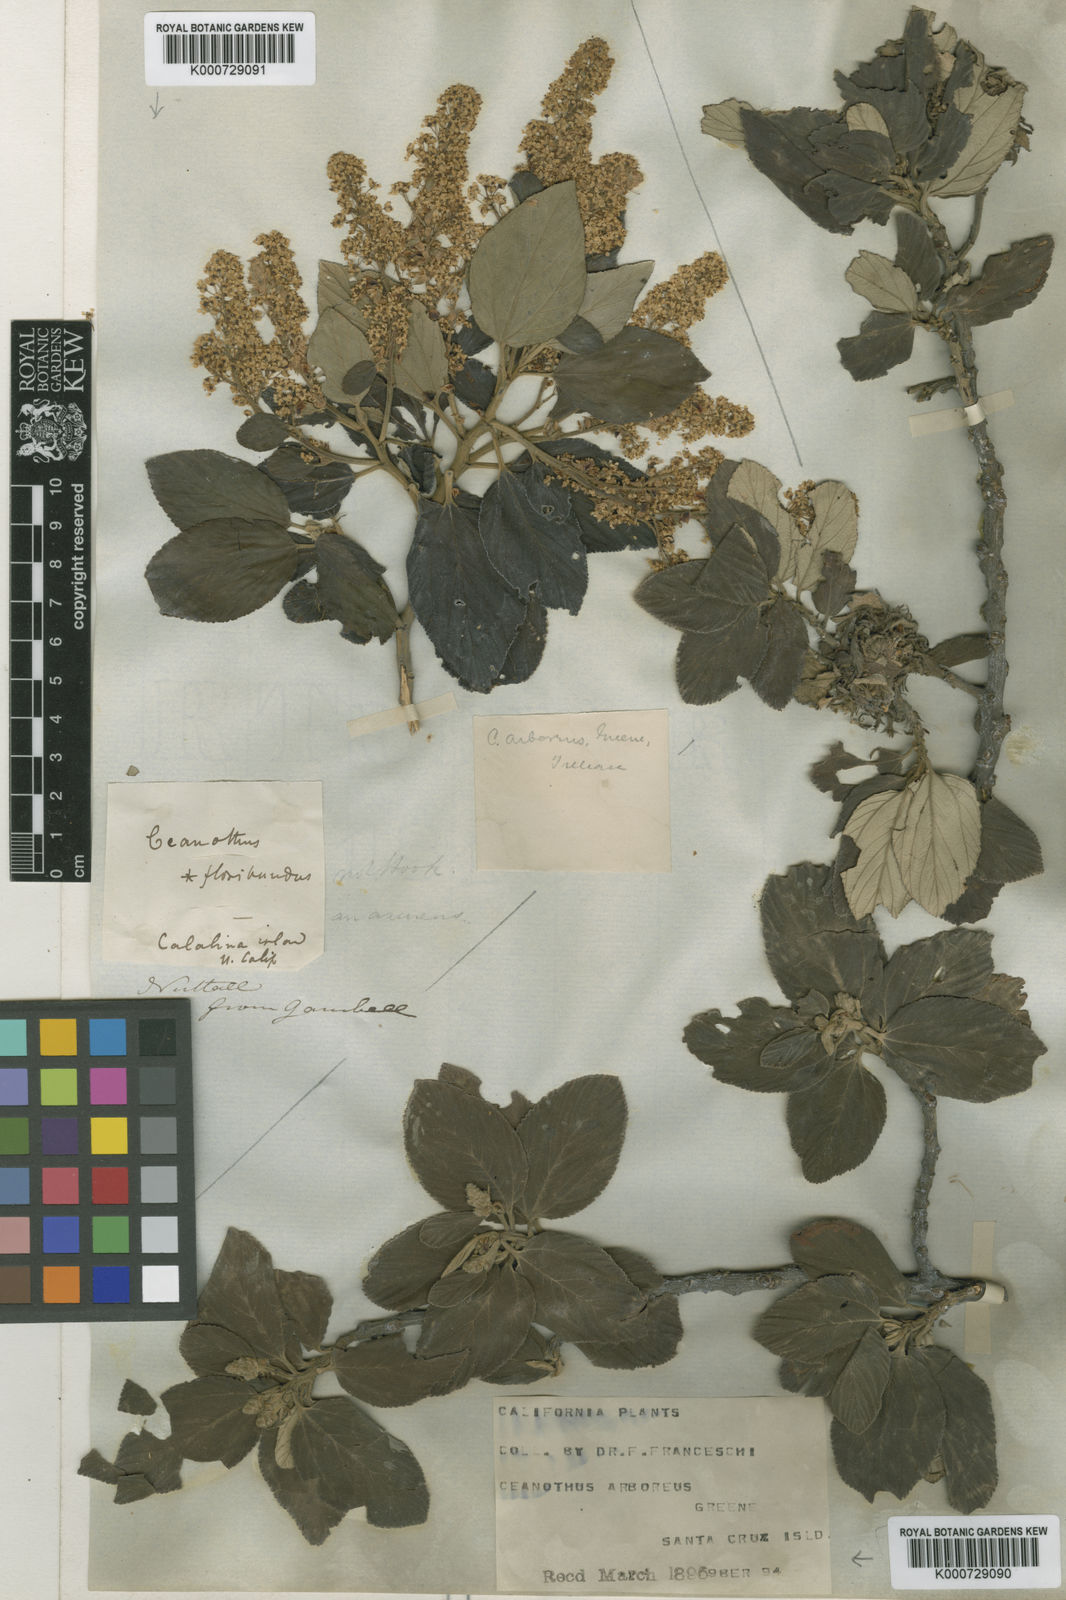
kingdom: Plantae
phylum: Tracheophyta
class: Magnoliopsida
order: Rosales
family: Rhamnaceae
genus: Ceanothus
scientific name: Ceanothus arboreus
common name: Catalina mountain-lilac
